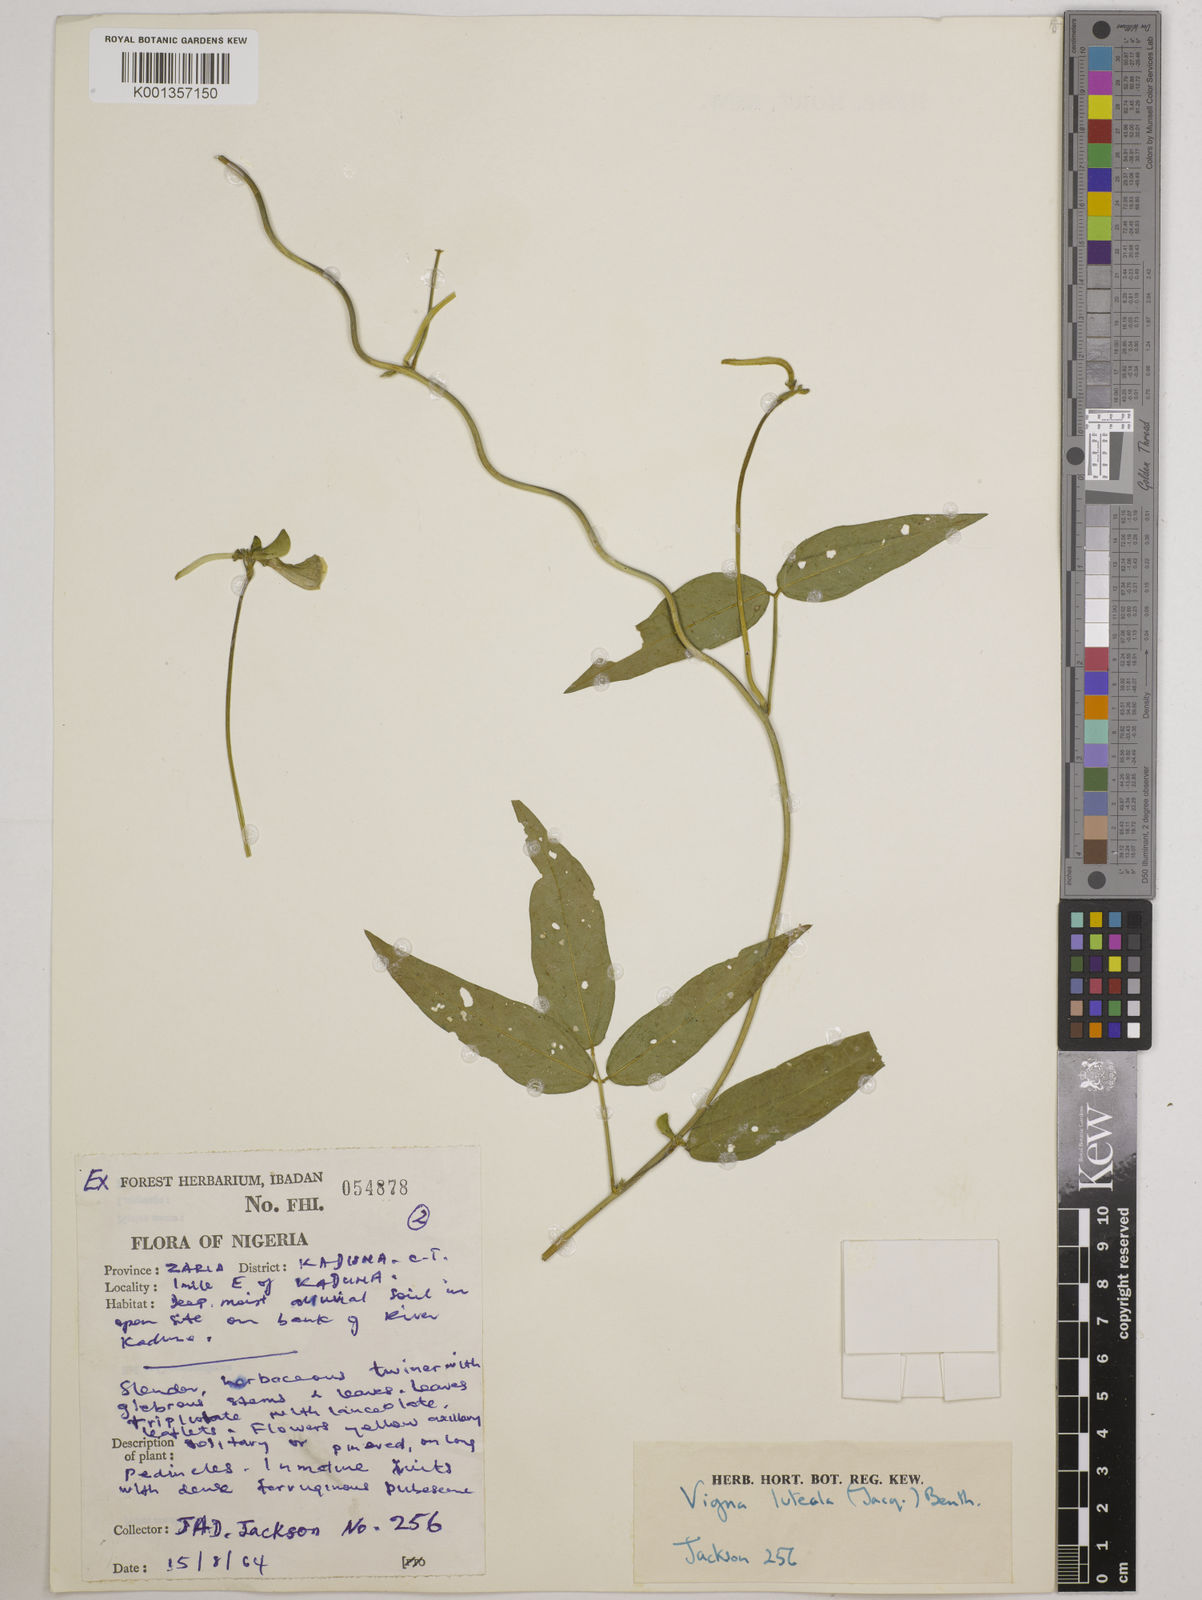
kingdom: Plantae
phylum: Tracheophyta
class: Magnoliopsida
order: Fabales
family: Fabaceae
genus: Vigna
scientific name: Vigna luteola
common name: Hairypod cowpea
